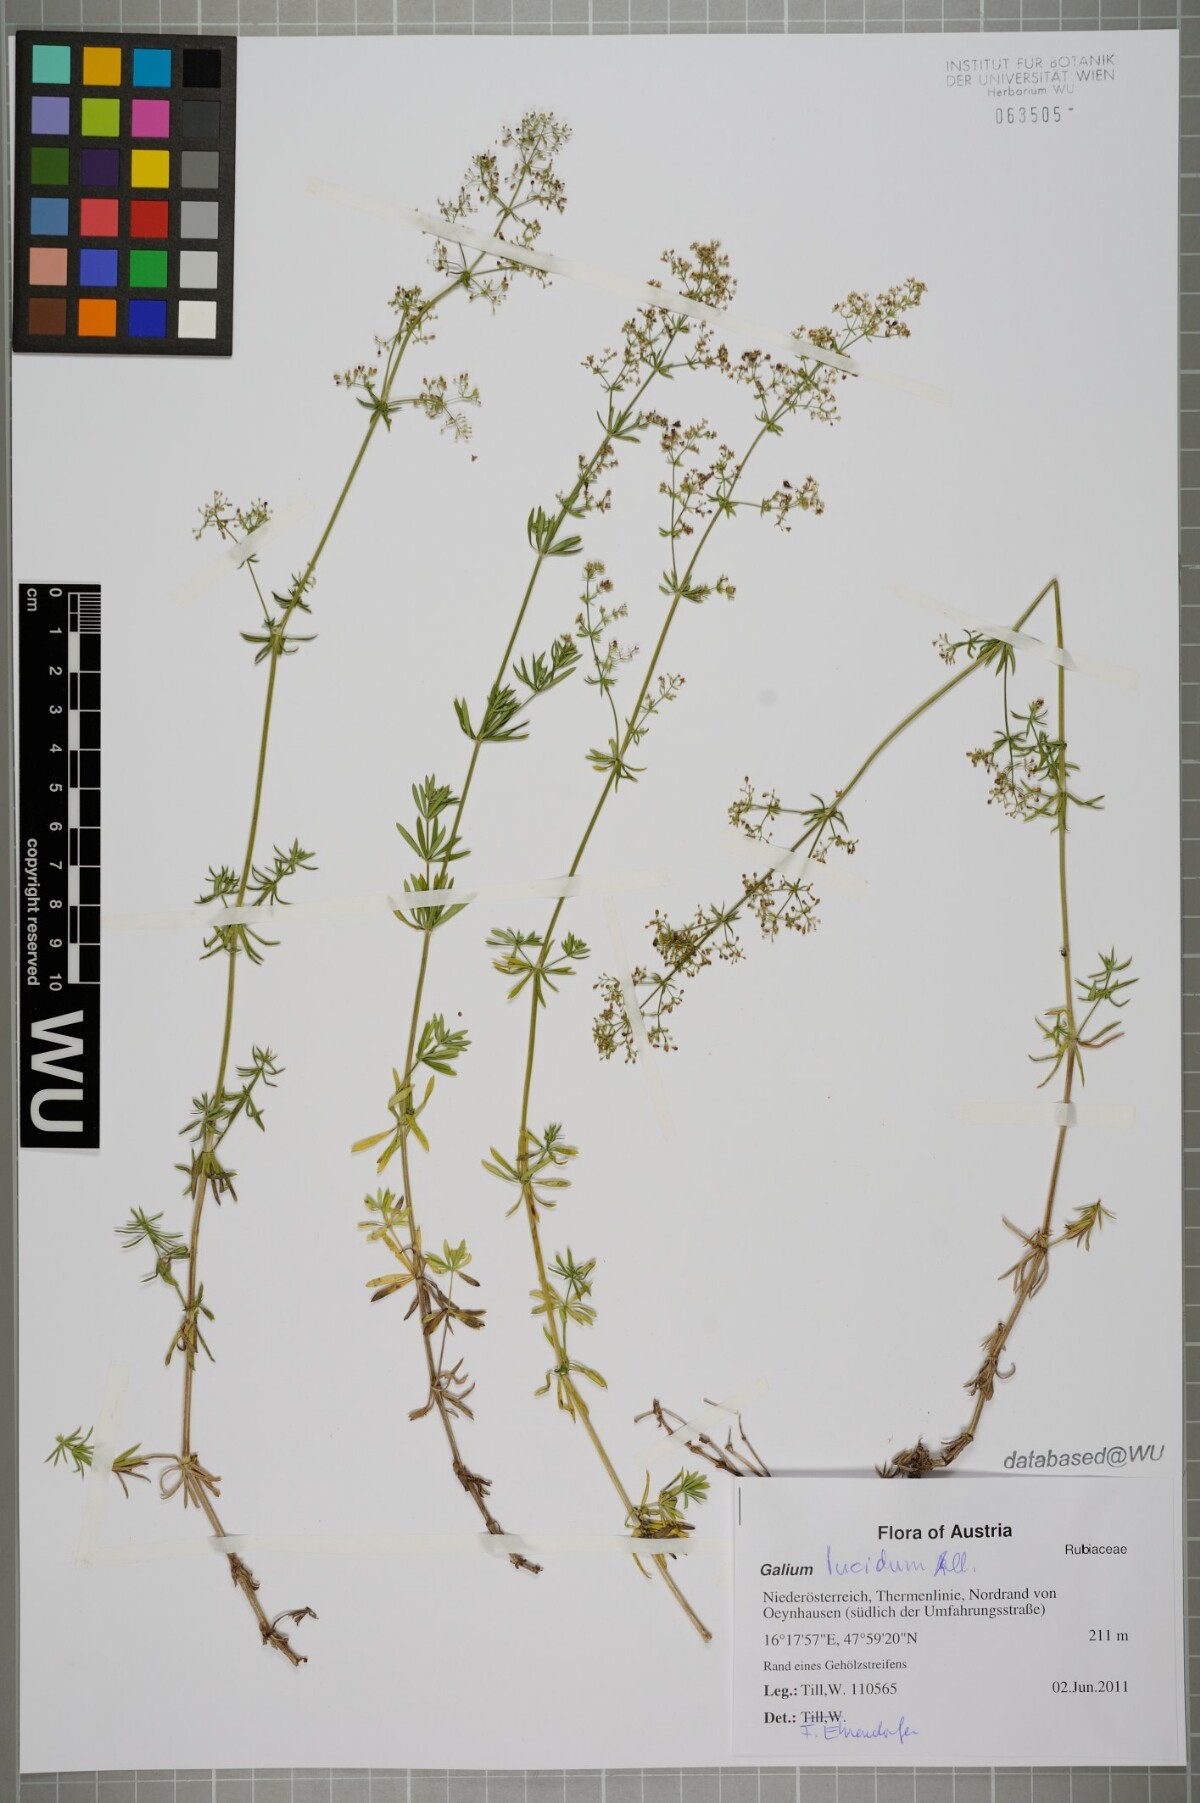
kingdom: Plantae
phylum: Tracheophyta
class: Magnoliopsida
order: Gentianales
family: Rubiaceae
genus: Galium
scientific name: Galium lucidum
